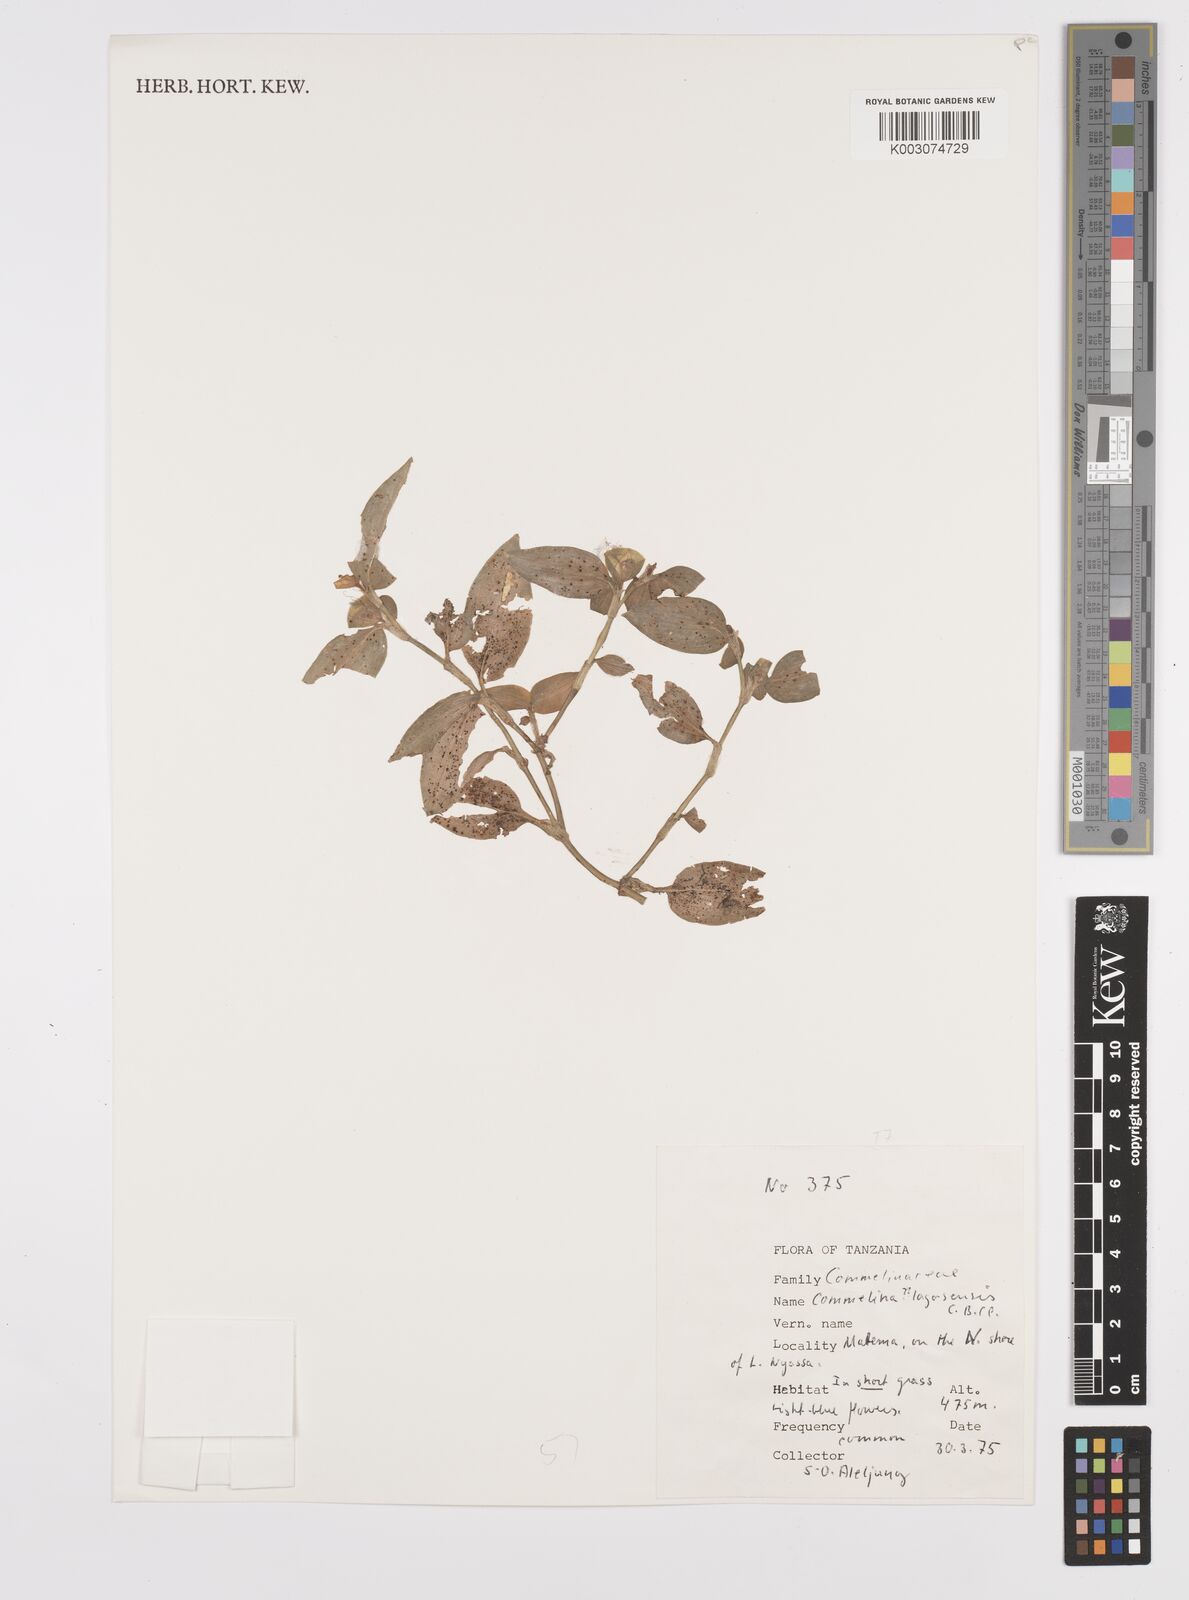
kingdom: Plantae
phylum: Tracheophyta
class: Liliopsida
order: Commelinales
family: Commelinaceae
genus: Commelina
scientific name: Commelina bracteosa
